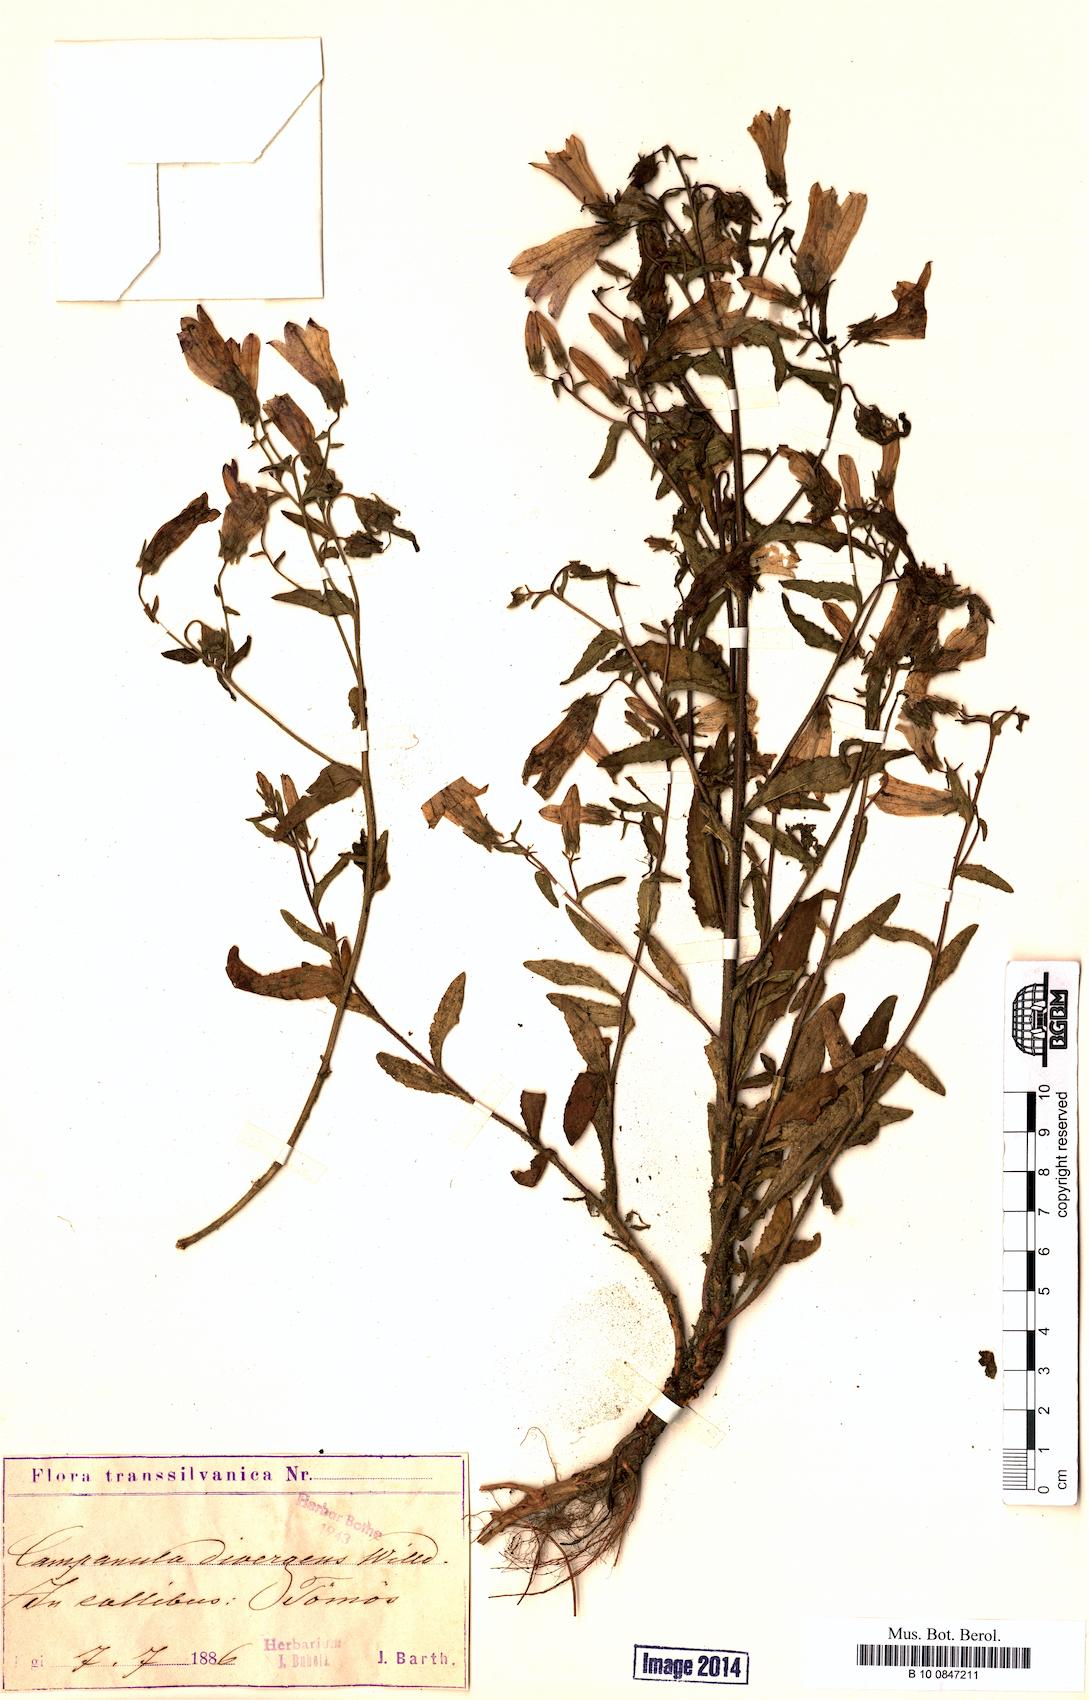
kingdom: Plantae
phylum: Tracheophyta
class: Magnoliopsida
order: Asterales
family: Campanulaceae
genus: Campanula
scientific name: Campanula sibirica
